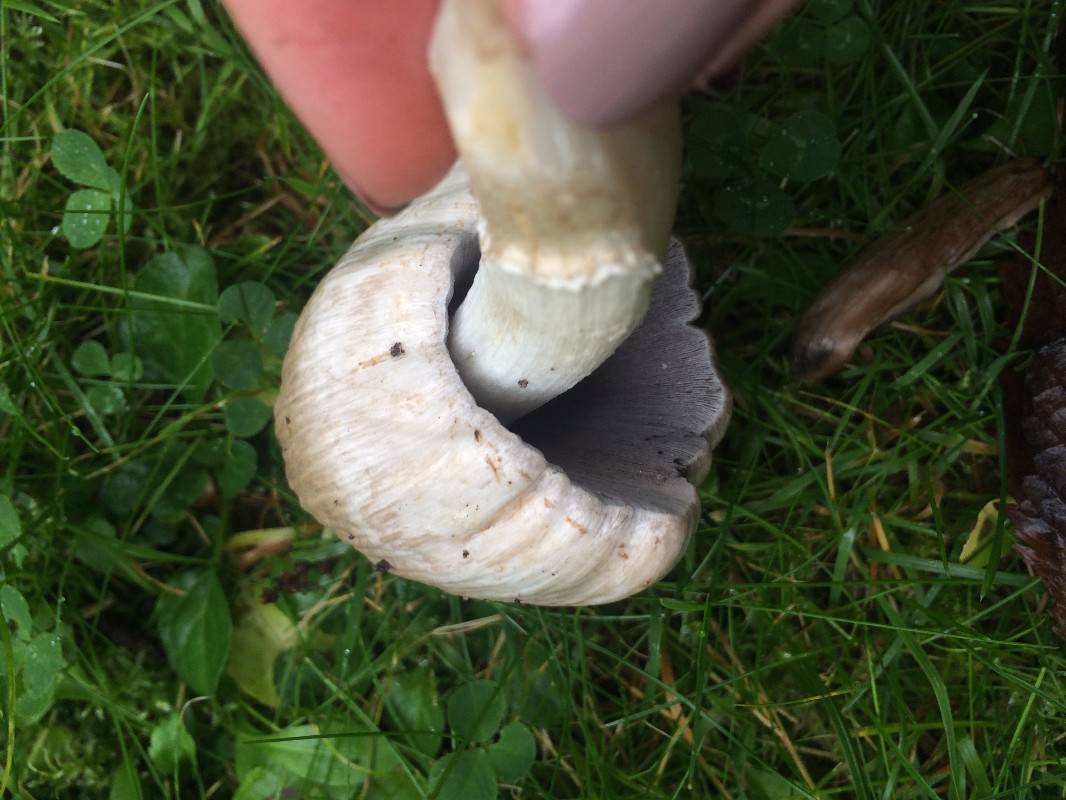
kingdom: Fungi
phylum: Basidiomycota
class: Agaricomycetes
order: Agaricales
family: Psathyrellaceae
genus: Coprinopsis
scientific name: Coprinopsis atramentaria
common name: almindelig blækhat
